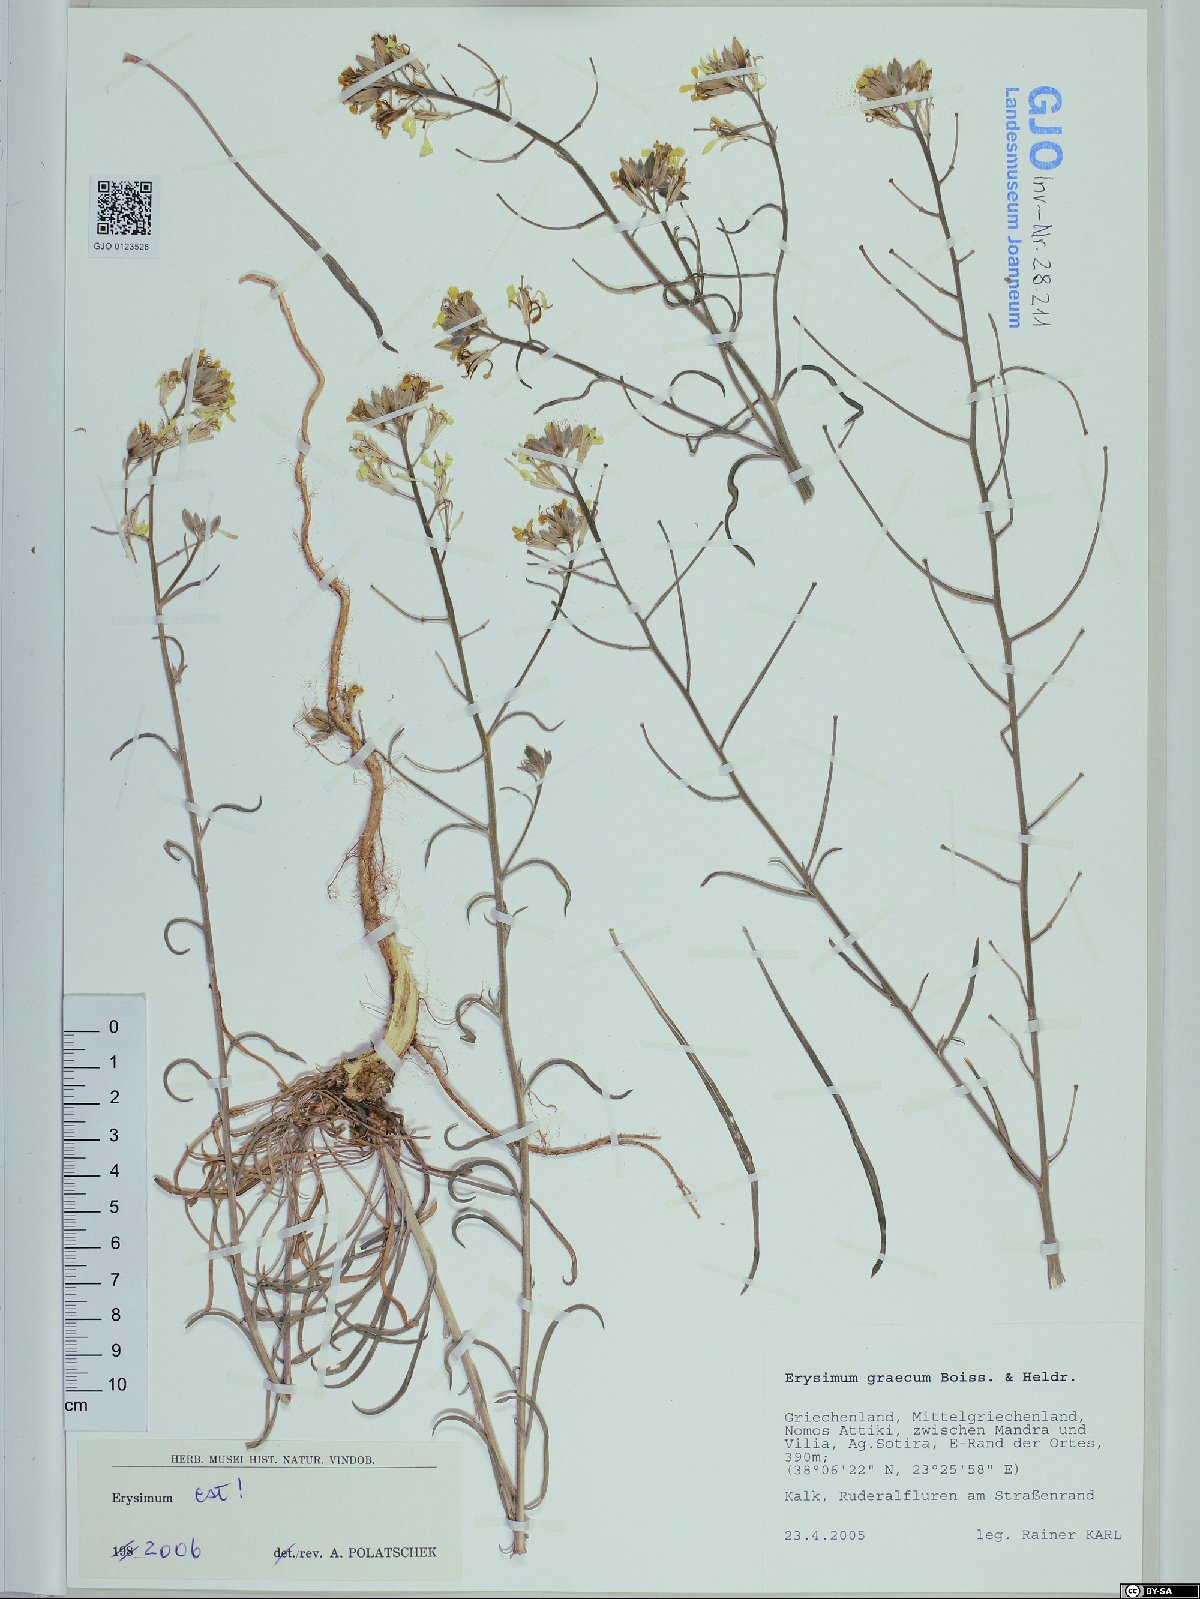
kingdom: Plantae
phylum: Tracheophyta
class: Magnoliopsida
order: Brassicales
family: Brassicaceae
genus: Erysimum
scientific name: Erysimum graecum
